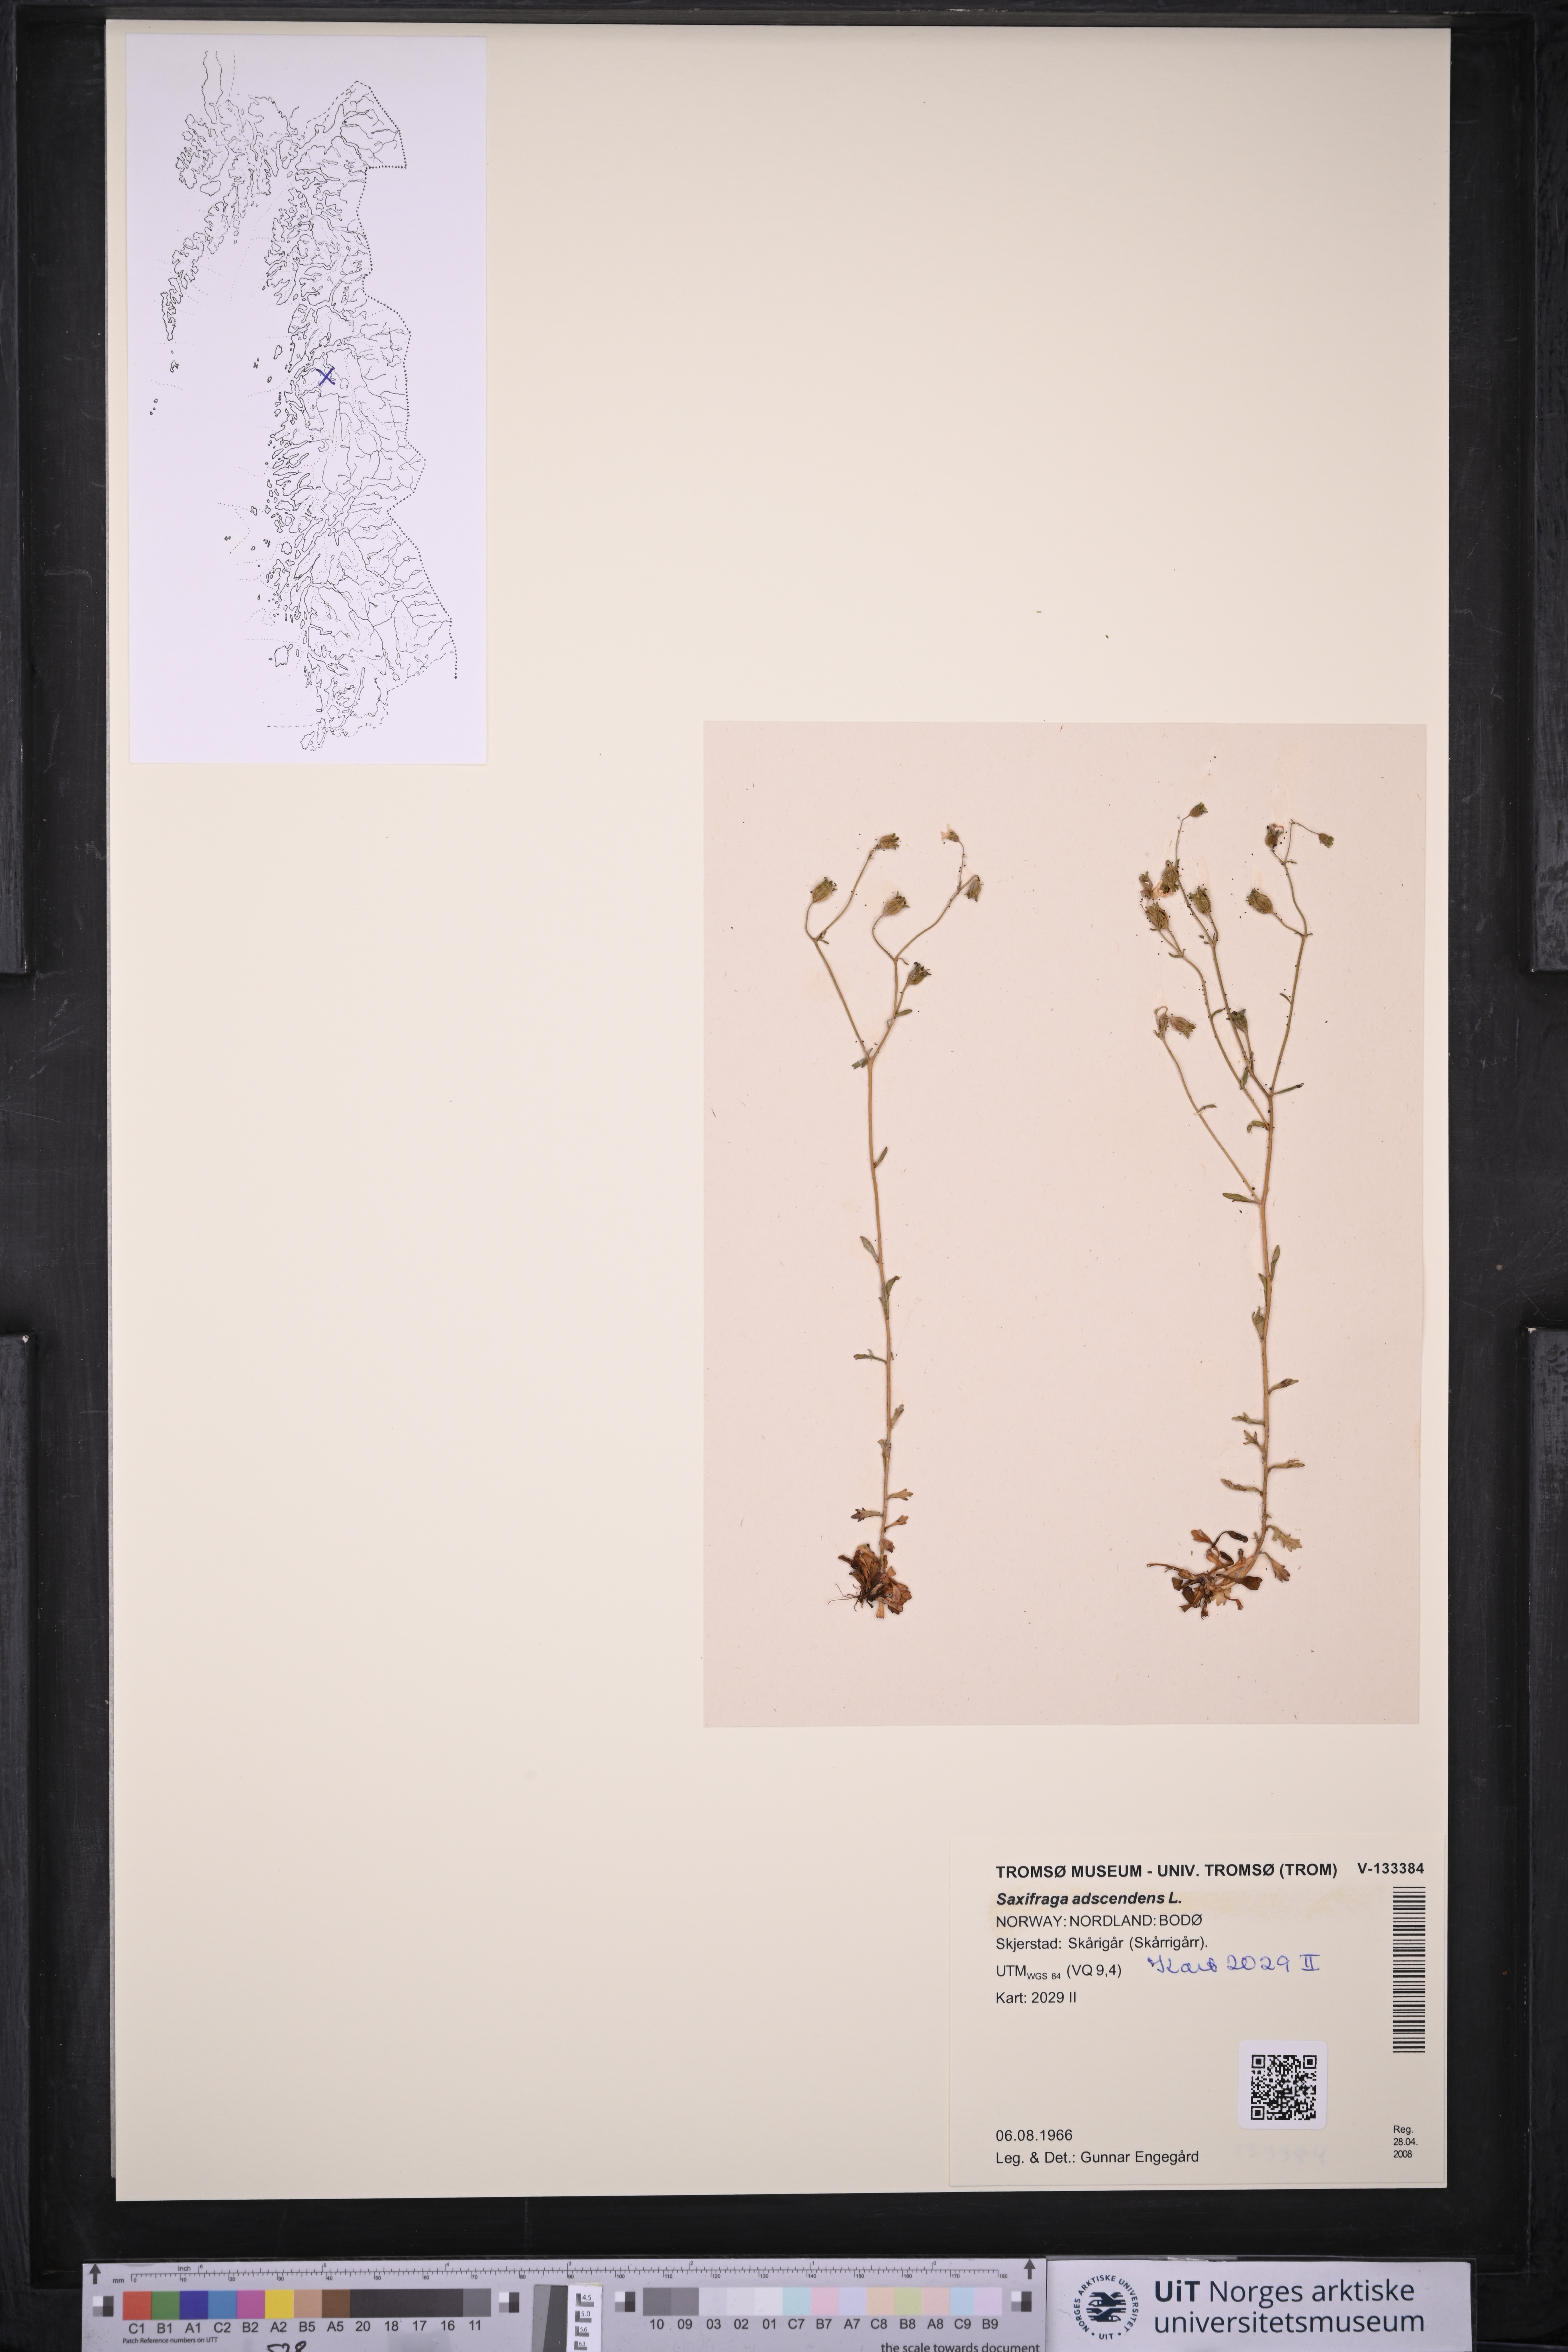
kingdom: Plantae
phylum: Tracheophyta
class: Magnoliopsida
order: Saxifragales
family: Saxifragaceae
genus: Saxifraga
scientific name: Saxifraga adscendens
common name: Ascending saxifrage
